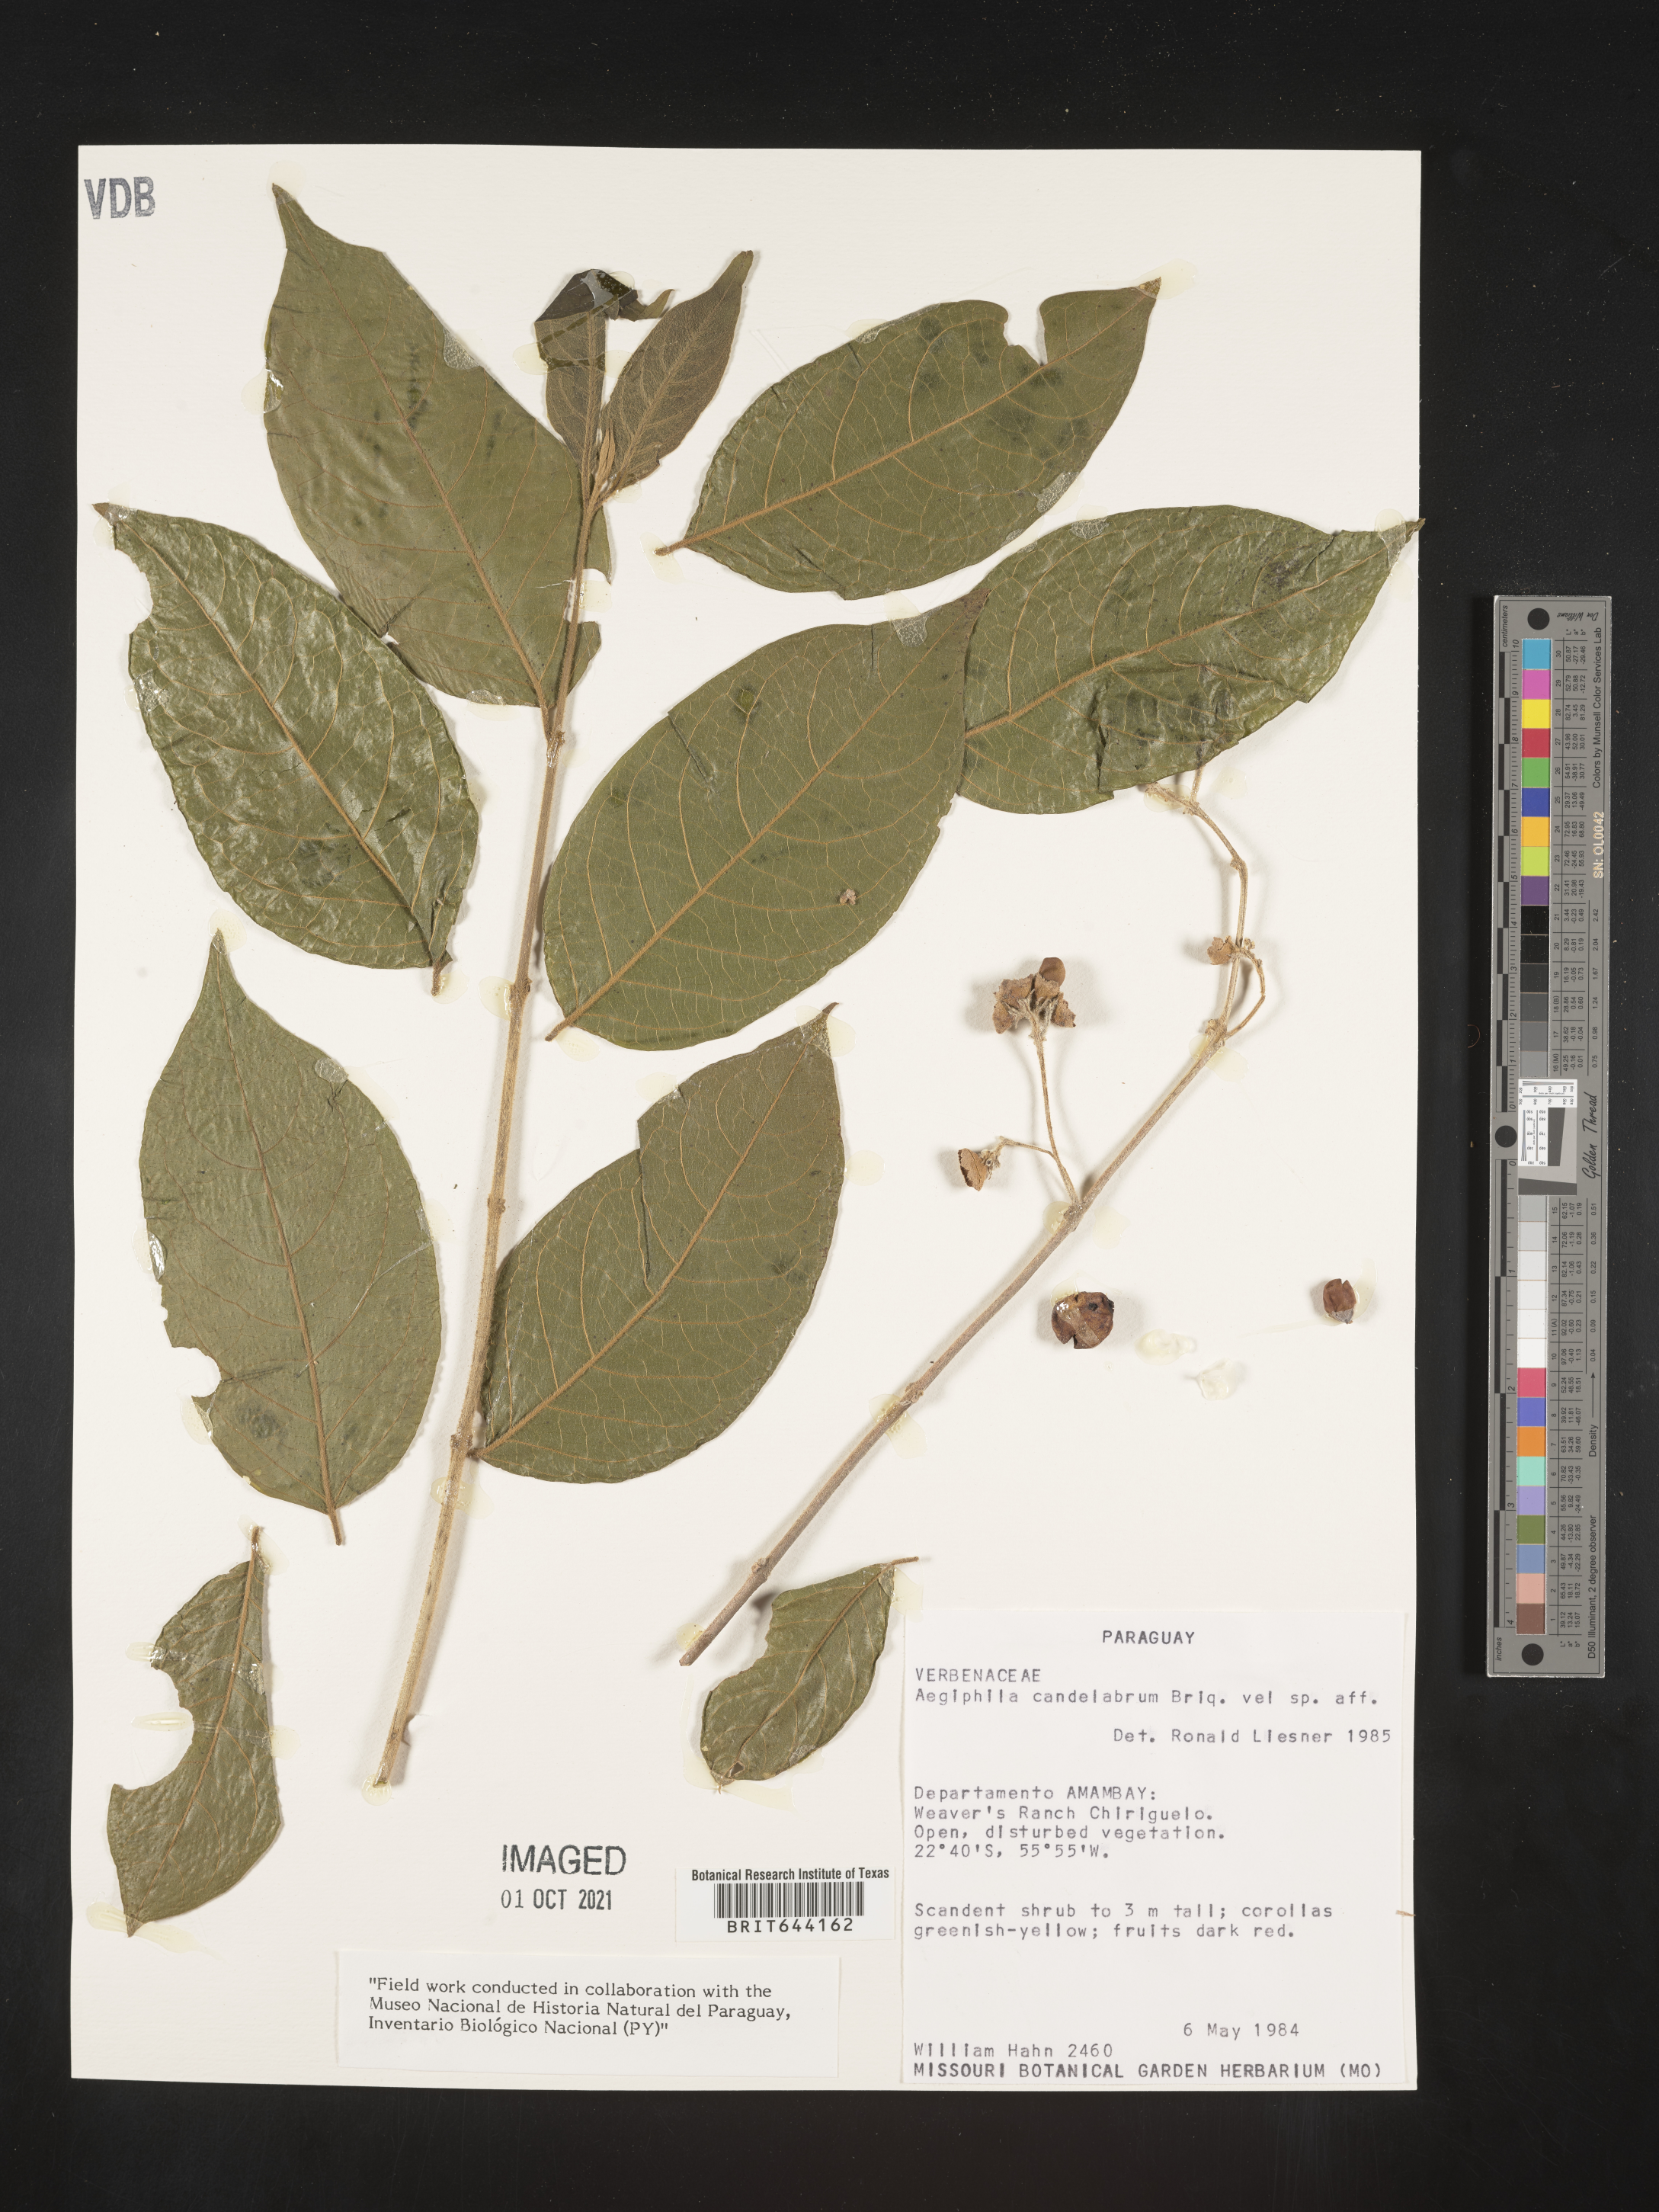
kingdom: Plantae
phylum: Tracheophyta
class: Magnoliopsida
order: Lamiales
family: Lamiaceae
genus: Aegiphila
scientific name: Aegiphila
